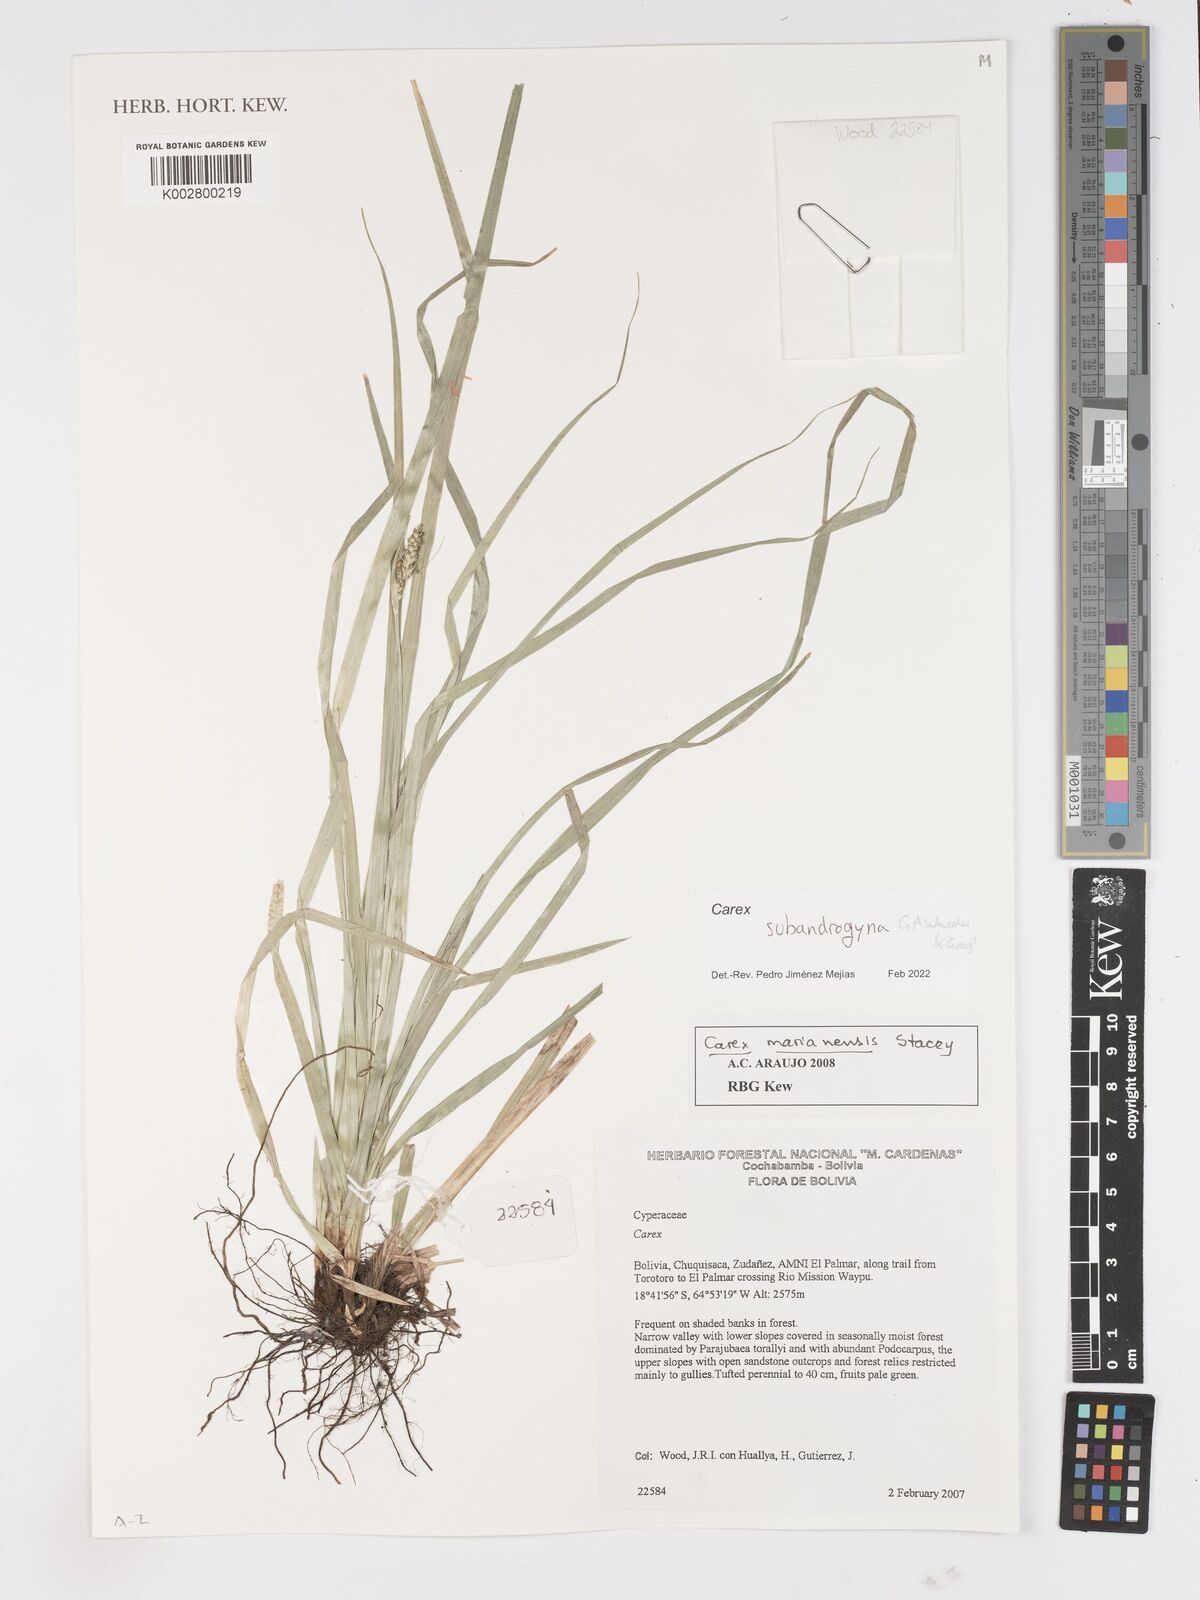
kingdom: Plantae
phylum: Tracheophyta
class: Liliopsida
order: Poales
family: Cyperaceae
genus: Carex
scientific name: Carex subandrogyna
